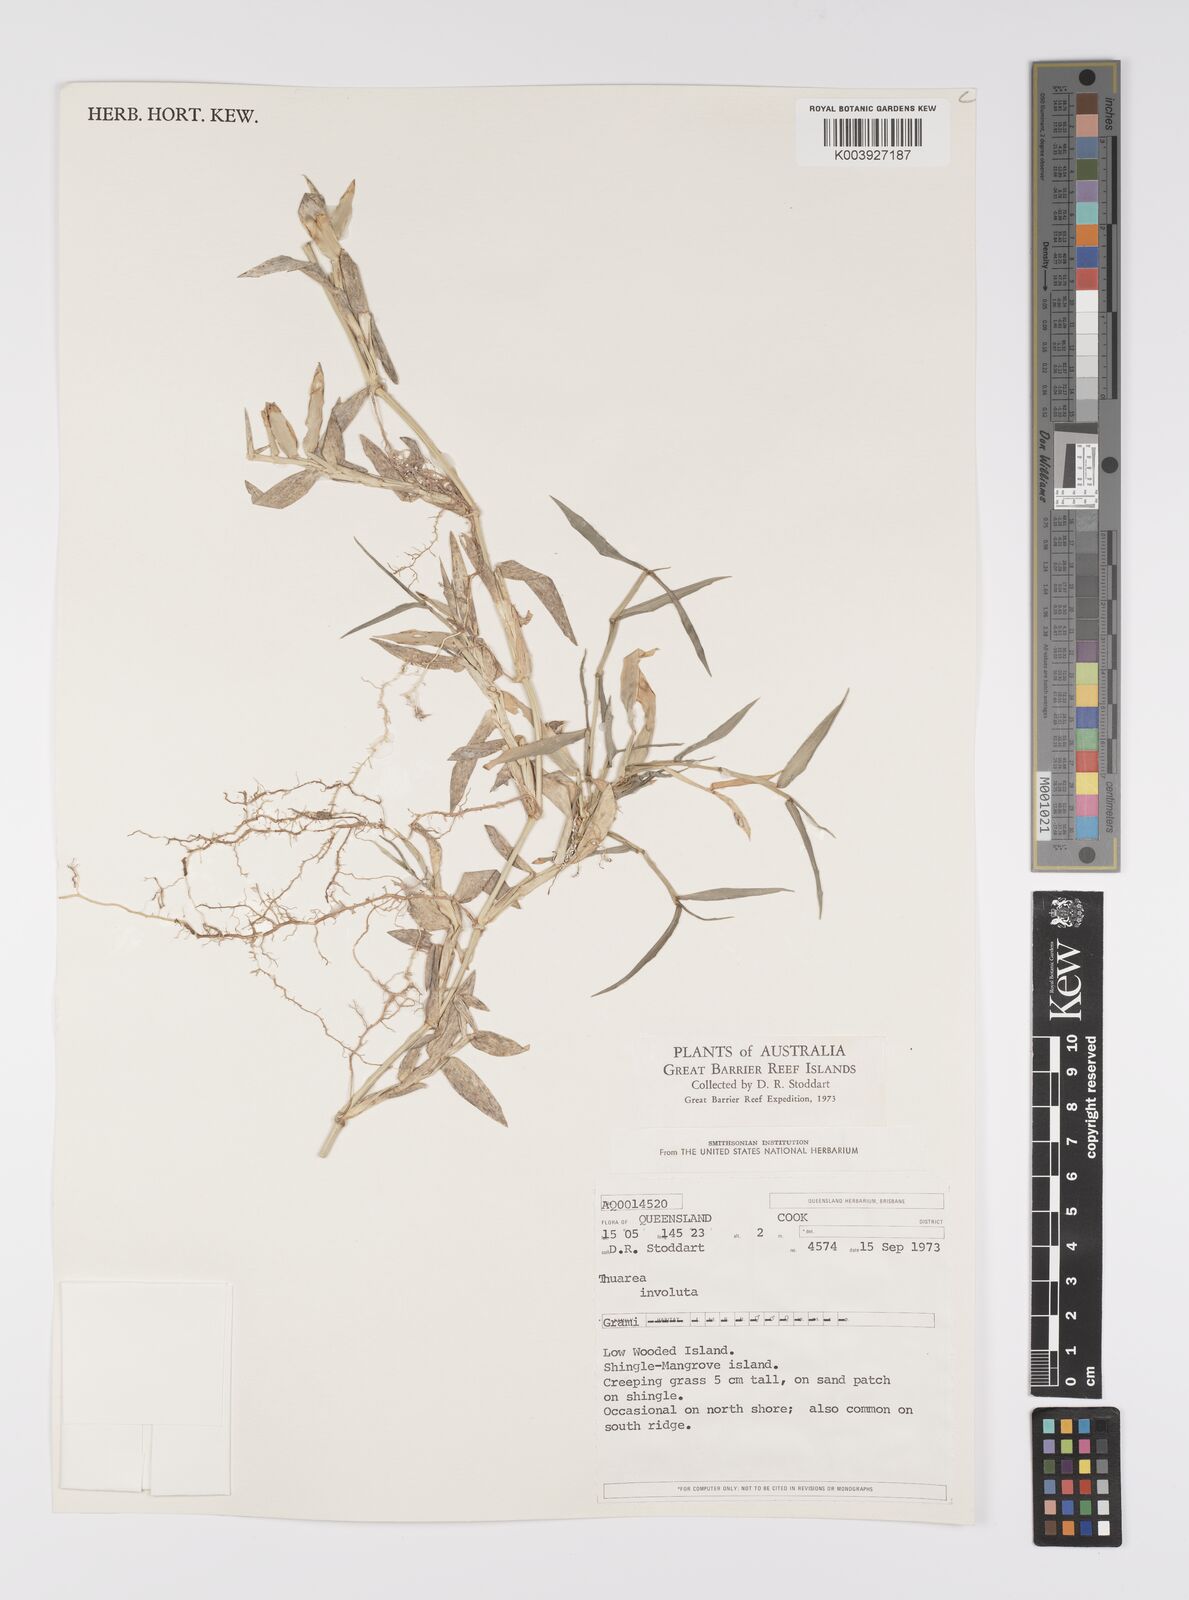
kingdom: Plantae
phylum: Tracheophyta
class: Liliopsida
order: Poales
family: Poaceae
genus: Thuarea
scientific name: Thuarea involuta
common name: Tropical beach grass
